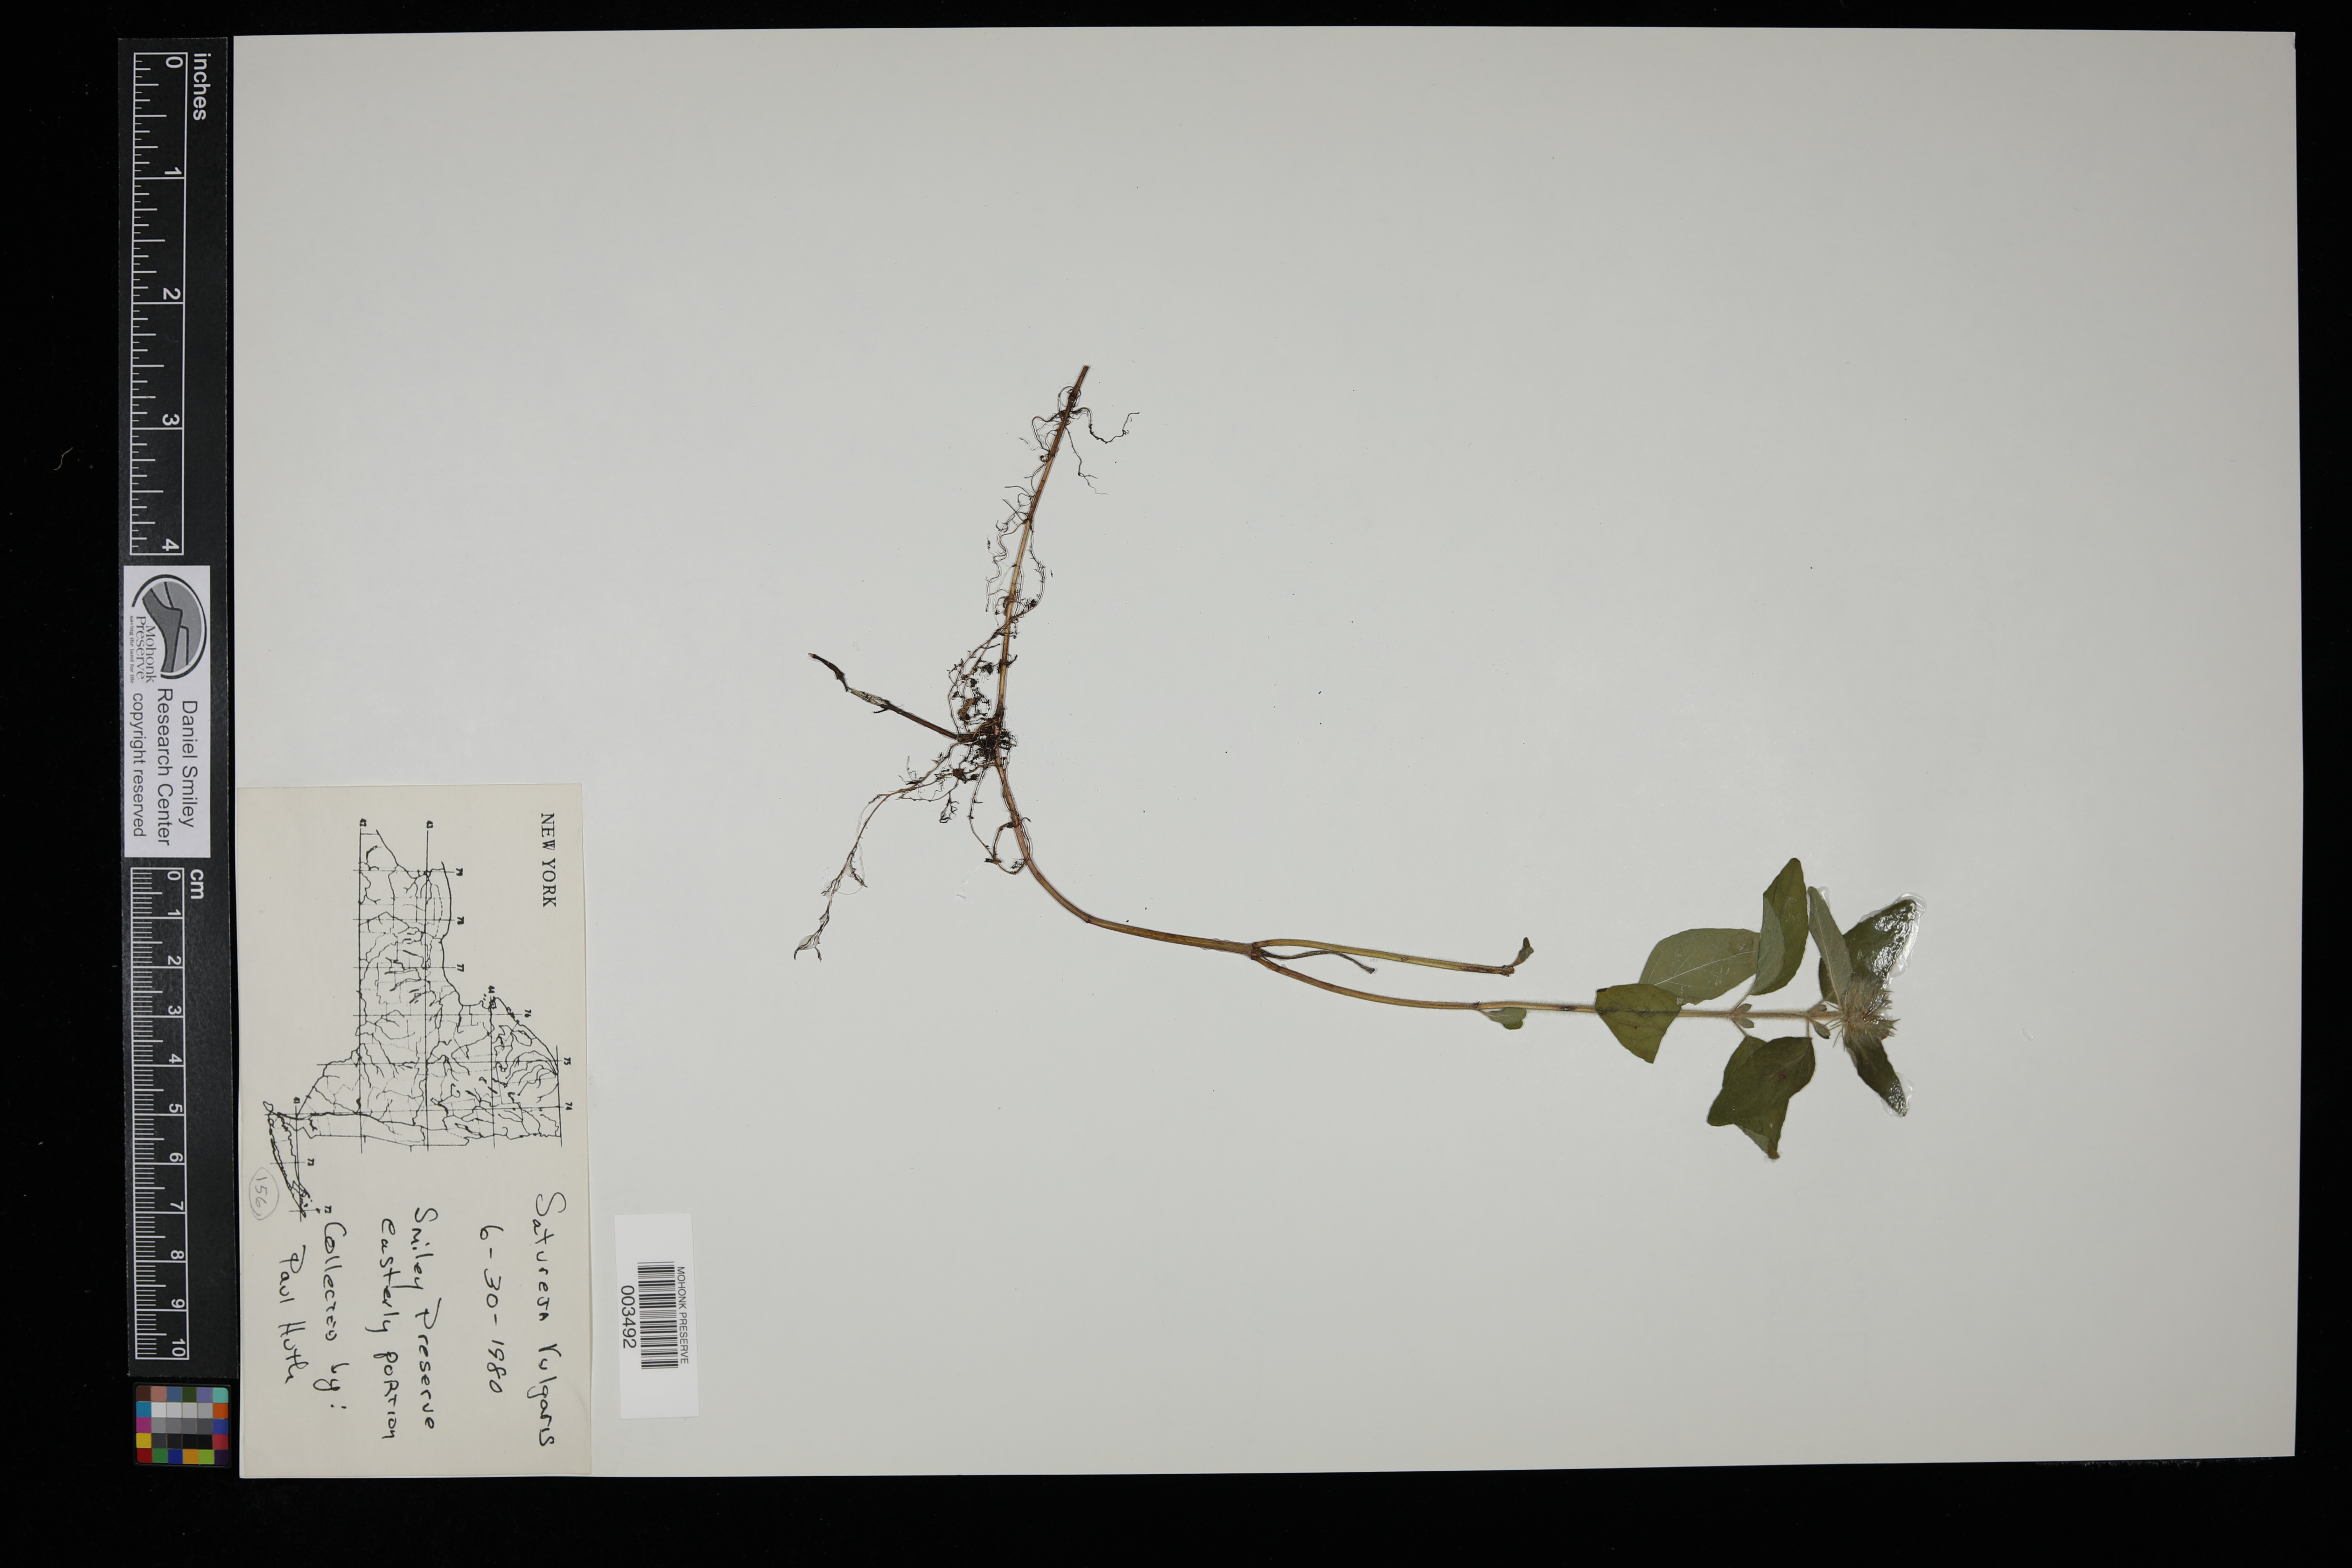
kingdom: Plantae
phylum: Tracheophyta
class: Magnoliopsida
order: Lamiales
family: Lamiaceae
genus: Clinopodium
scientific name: Clinopodium vulgare
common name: Wild basil
